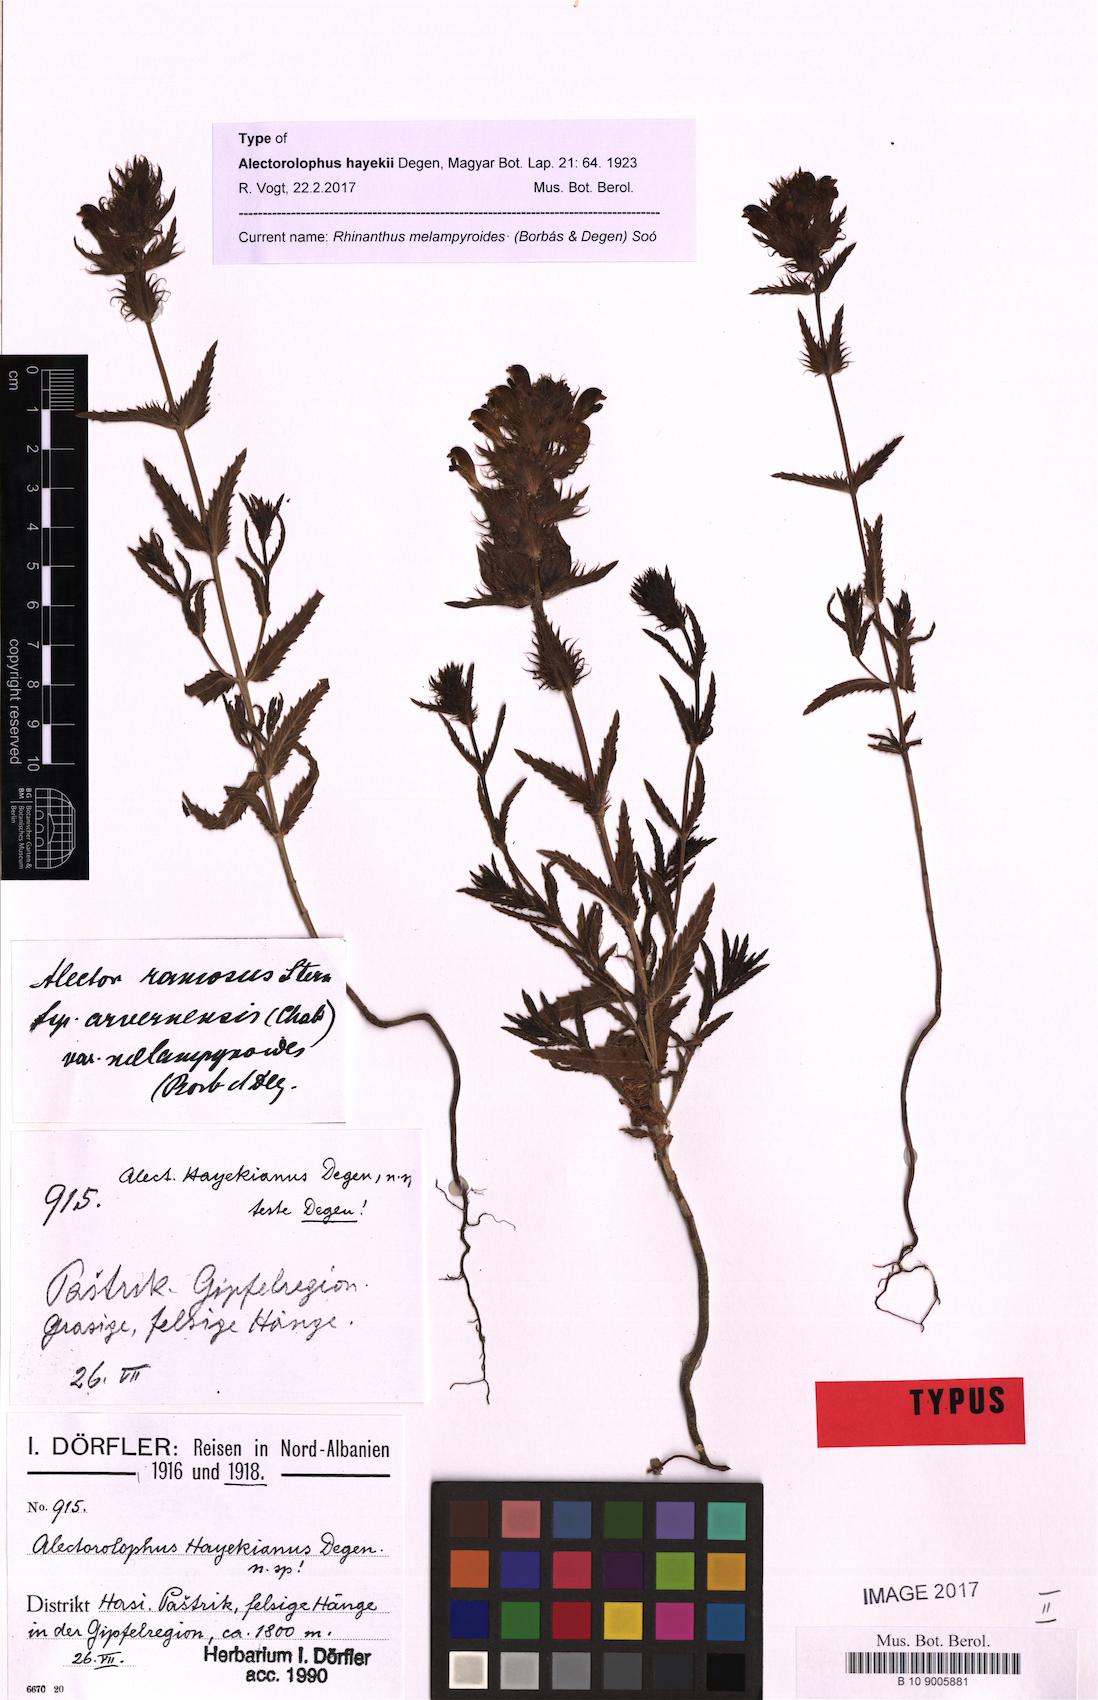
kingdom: Plantae
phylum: Tracheophyta
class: Magnoliopsida
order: Lamiales
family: Orobanchaceae
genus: Rhinanthus
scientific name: Rhinanthus melampyroides
